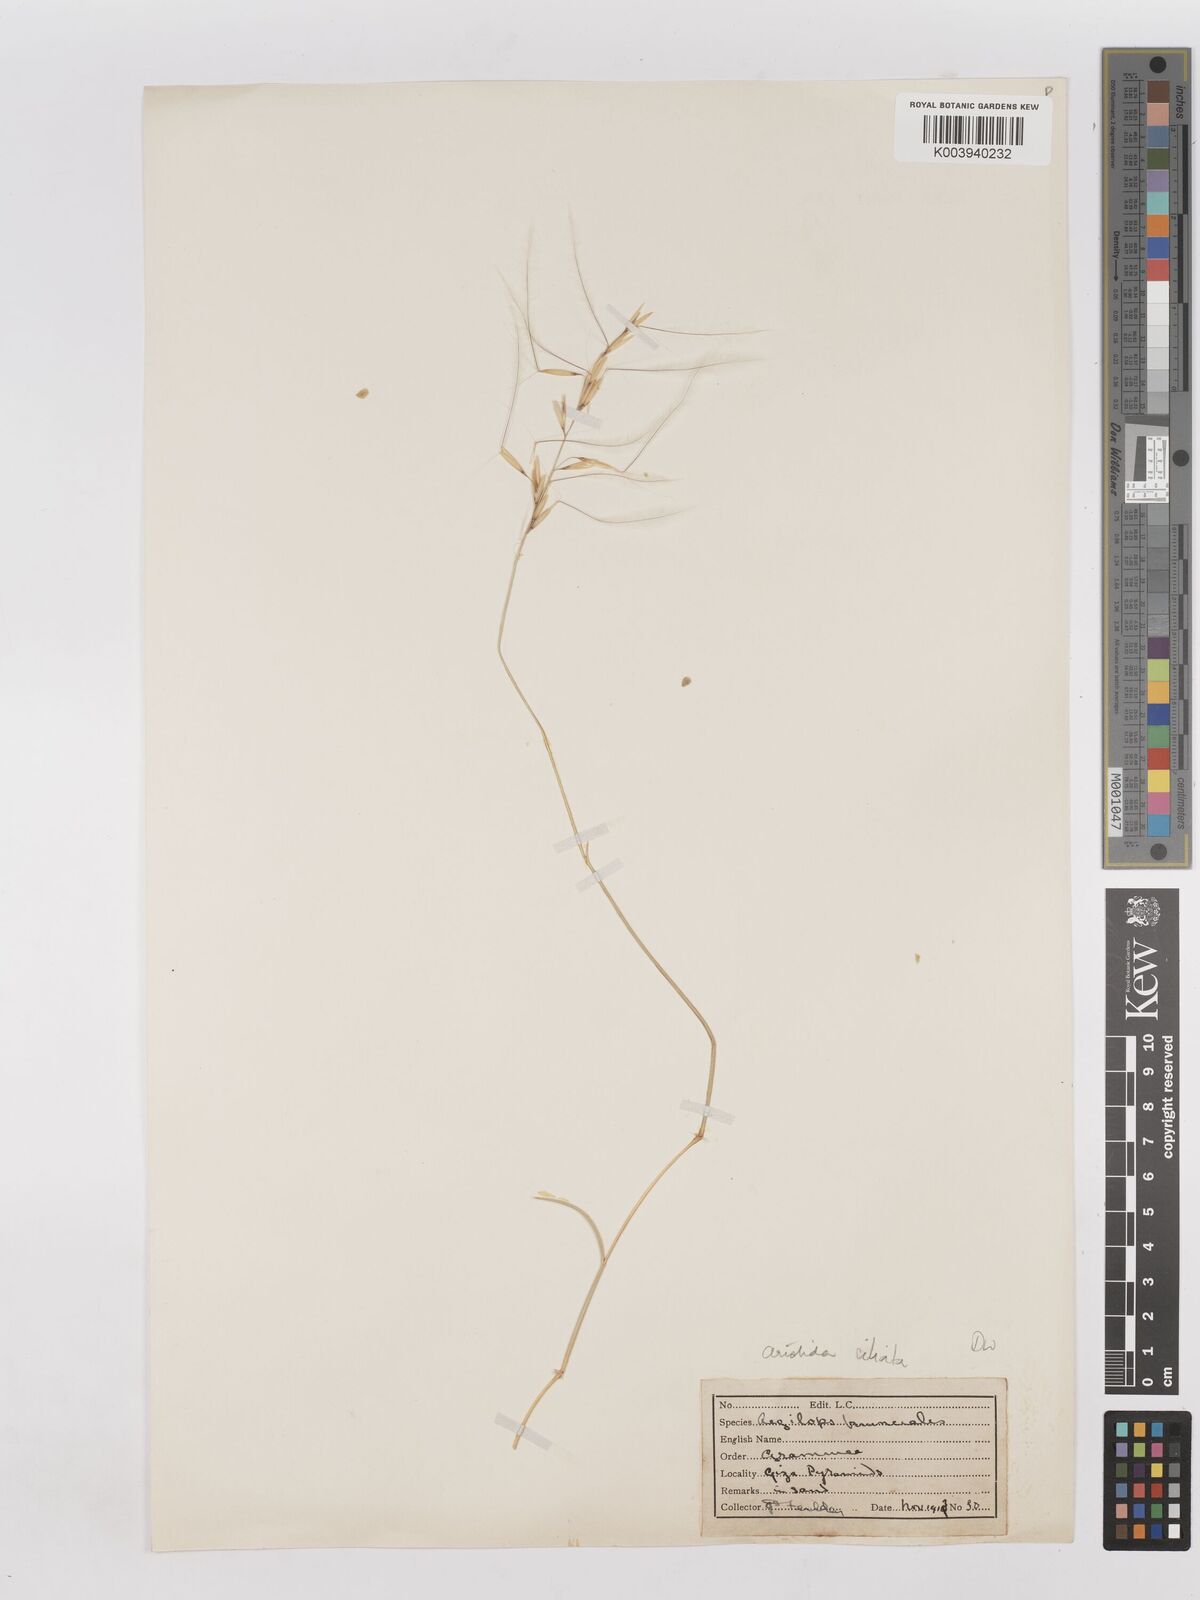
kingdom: Plantae
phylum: Tracheophyta
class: Liliopsida
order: Poales
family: Poaceae
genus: Stipagrostis
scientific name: Stipagrostis ciliata
